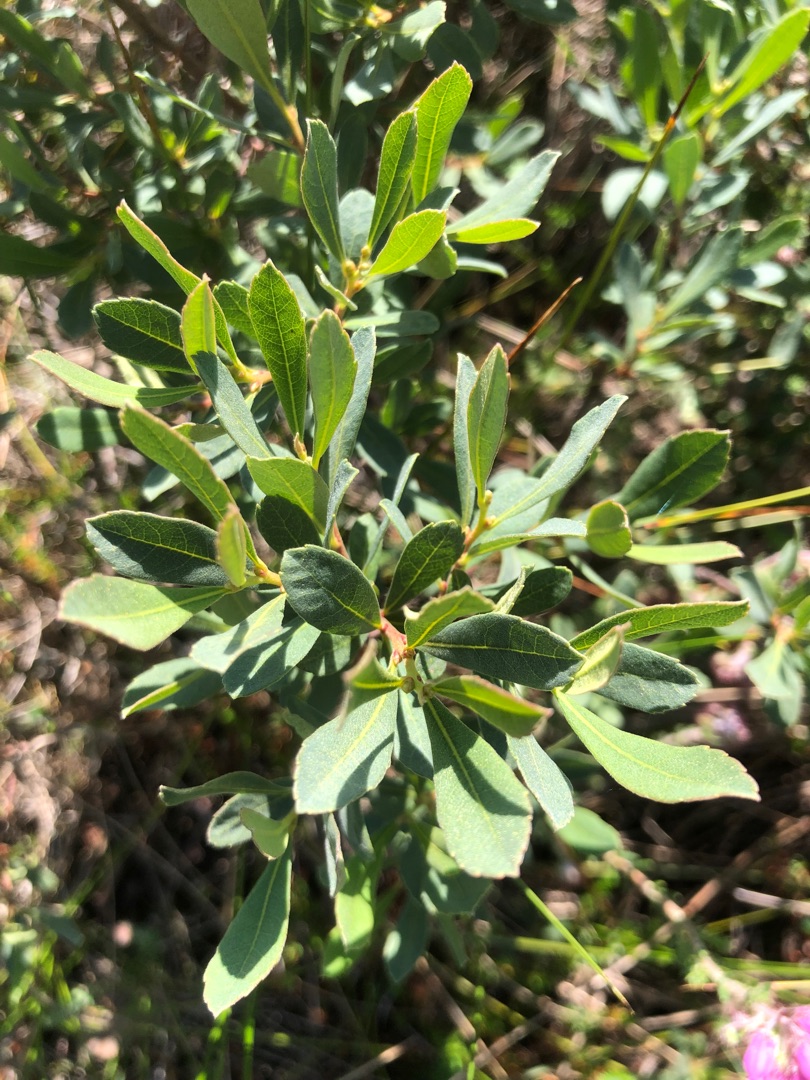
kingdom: Plantae
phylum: Tracheophyta
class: Magnoliopsida
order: Fagales
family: Myricaceae
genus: Myrica
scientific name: Myrica gale
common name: Pors
